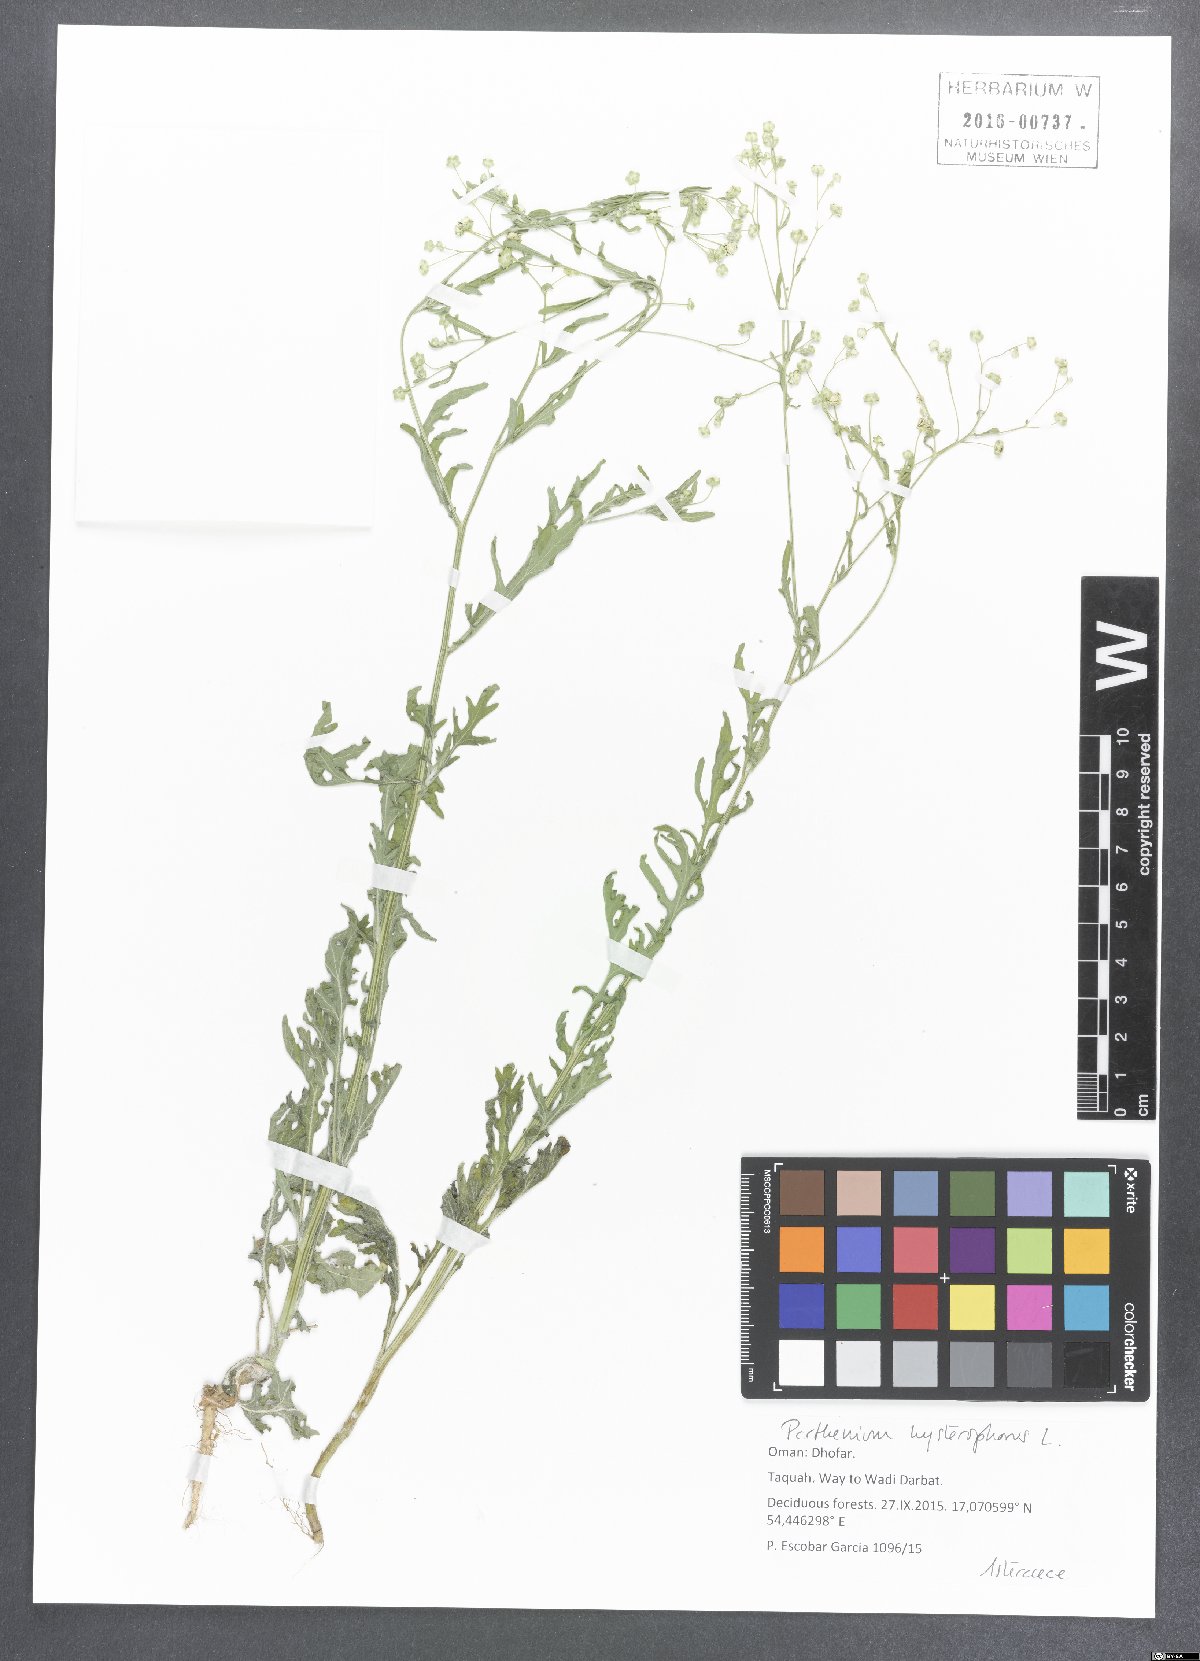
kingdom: Plantae
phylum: Tracheophyta
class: Magnoliopsida
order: Asterales
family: Asteraceae
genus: Parthenium
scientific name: Parthenium hysterophorus
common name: Santa maria feverfew
